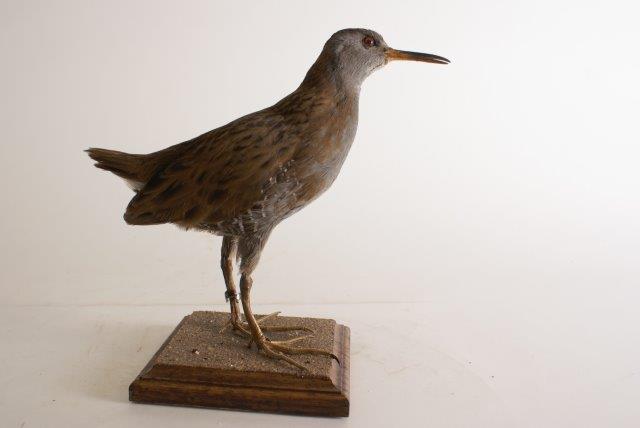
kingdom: Animalia
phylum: Chordata
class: Aves
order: Gruiformes
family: Rallidae
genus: Rallus
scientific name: Rallus aquaticus
